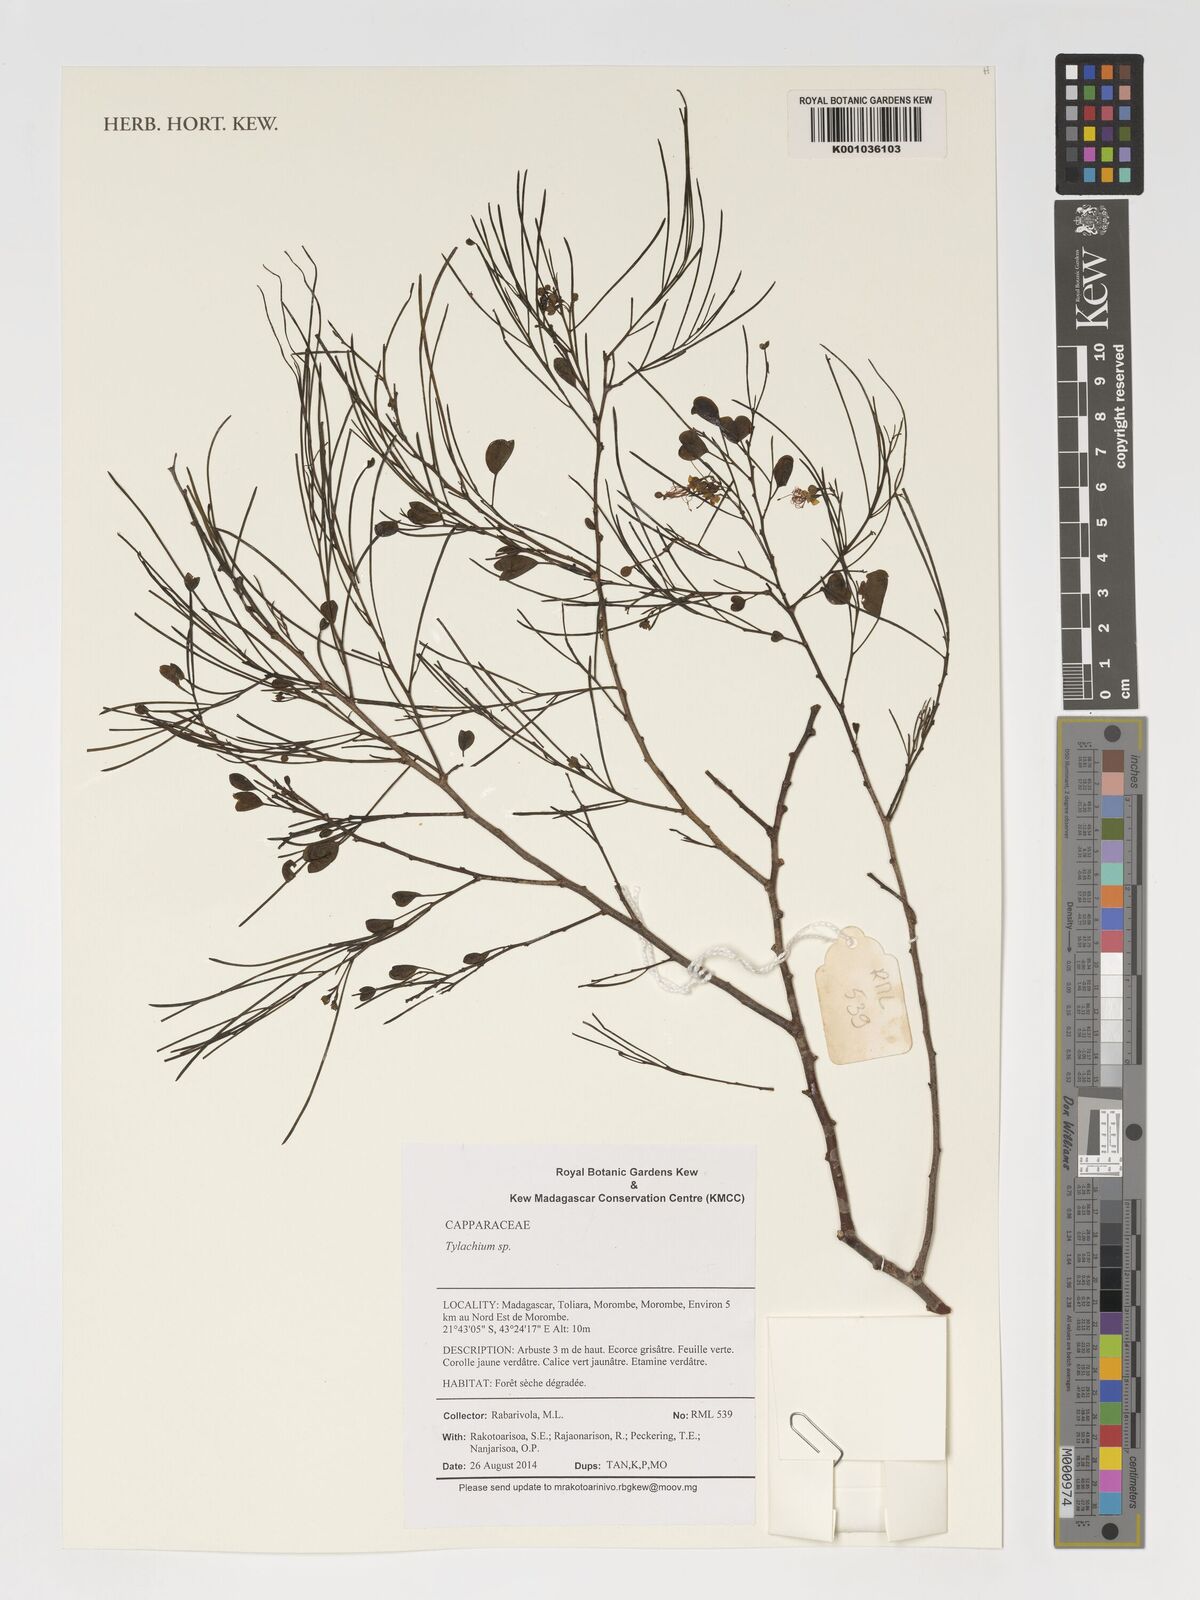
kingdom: Plantae
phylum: Tracheophyta
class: Magnoliopsida
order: Brassicales
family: Capparaceae
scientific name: Capparaceae
